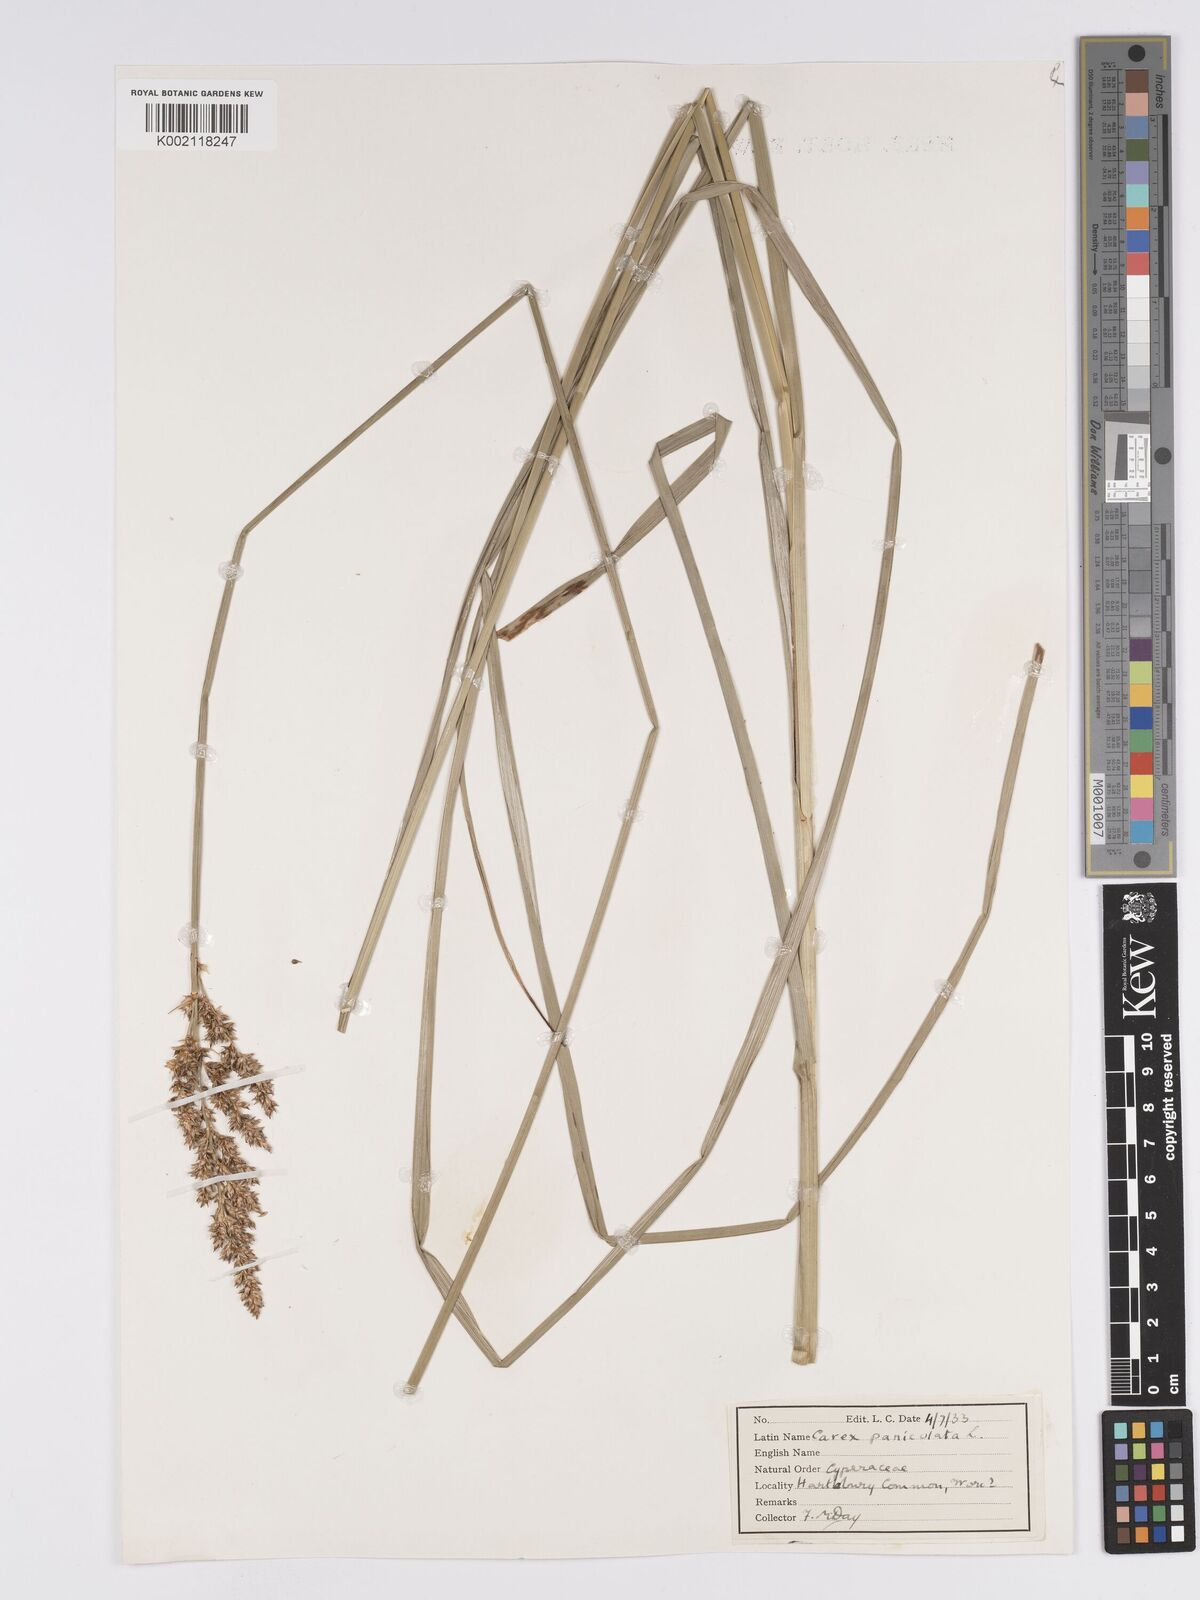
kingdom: Plantae
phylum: Tracheophyta
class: Liliopsida
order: Poales
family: Cyperaceae
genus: Carex
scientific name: Carex paniculata
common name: Greater tussock-sedge
